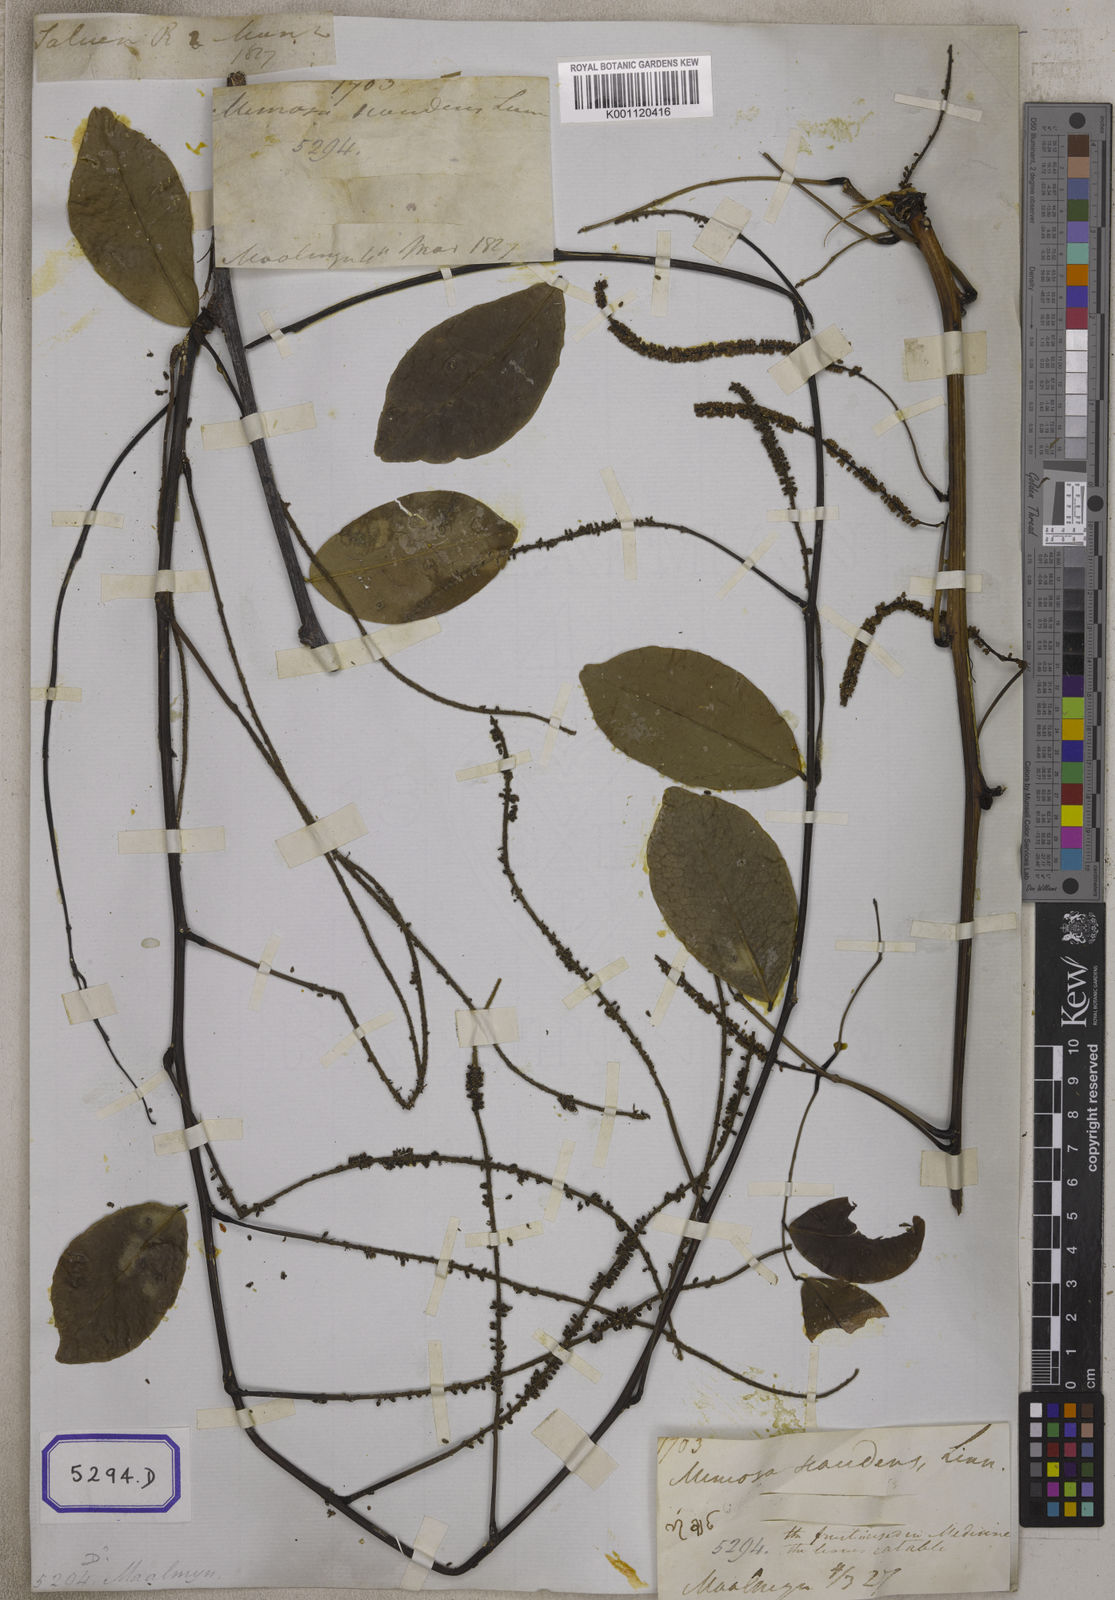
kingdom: Plantae
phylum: Tracheophyta
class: Magnoliopsida
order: Fabales
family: Fabaceae
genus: Entada
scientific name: Entada rheedei
